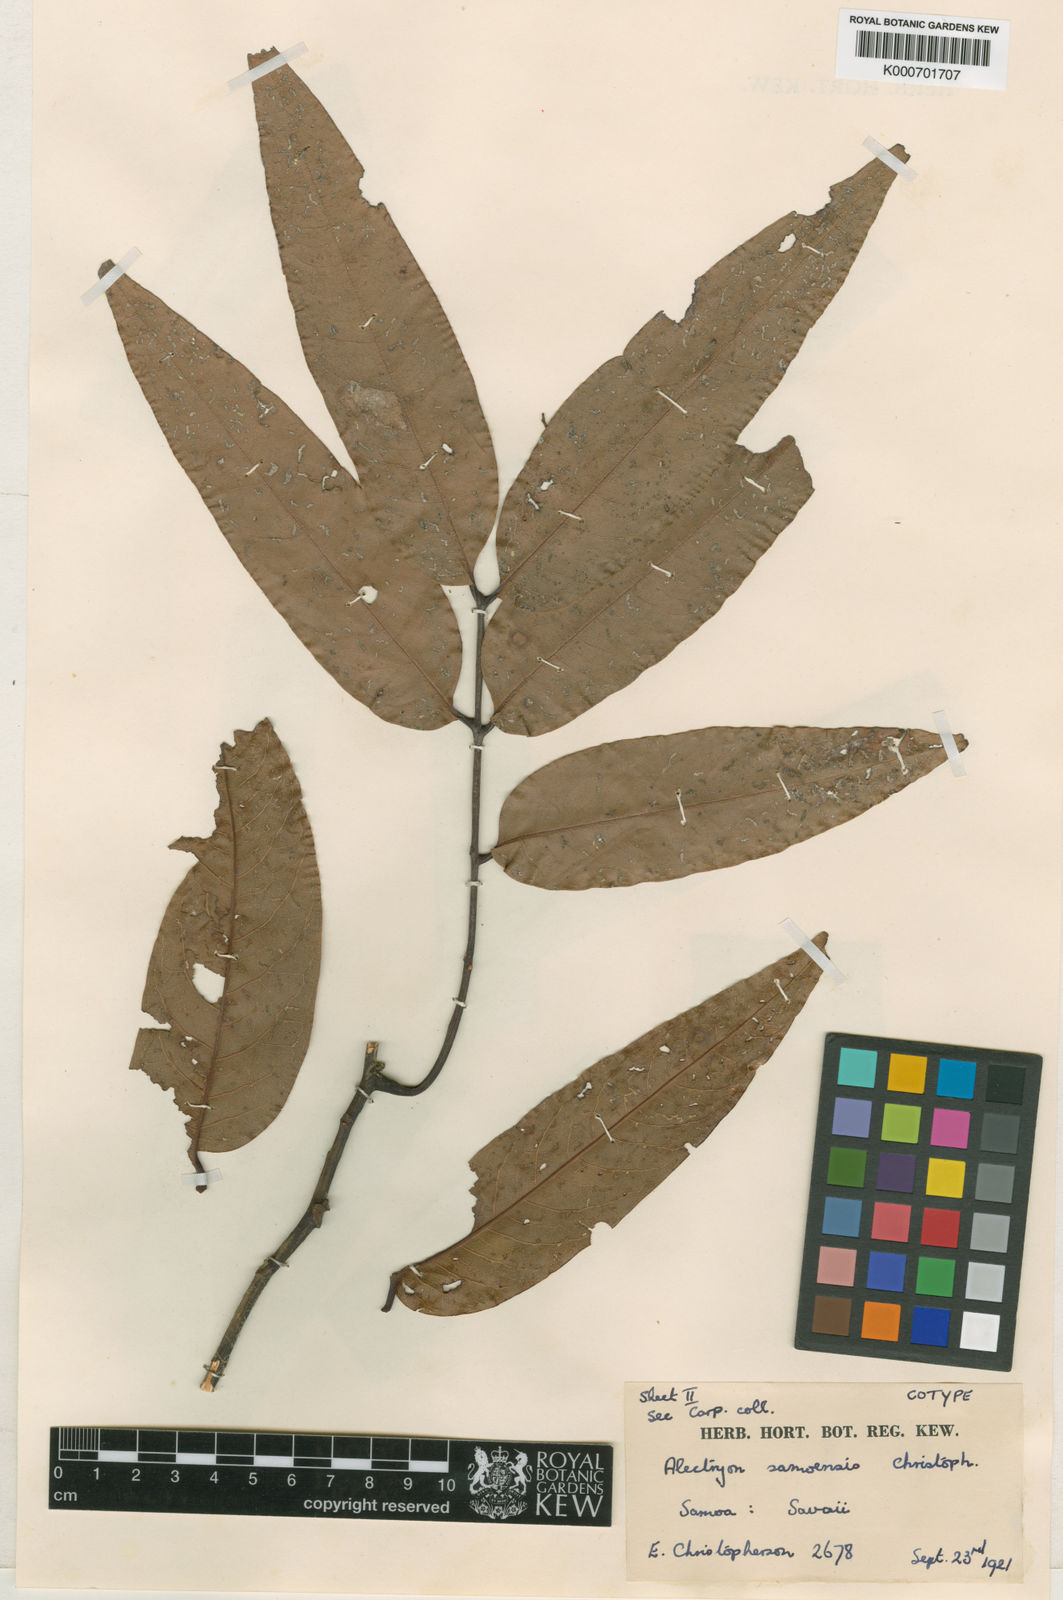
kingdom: Plantae
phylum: Tracheophyta
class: Magnoliopsida
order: Sapindales
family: Sapindaceae
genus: Alectryon
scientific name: Alectryon samoensis
